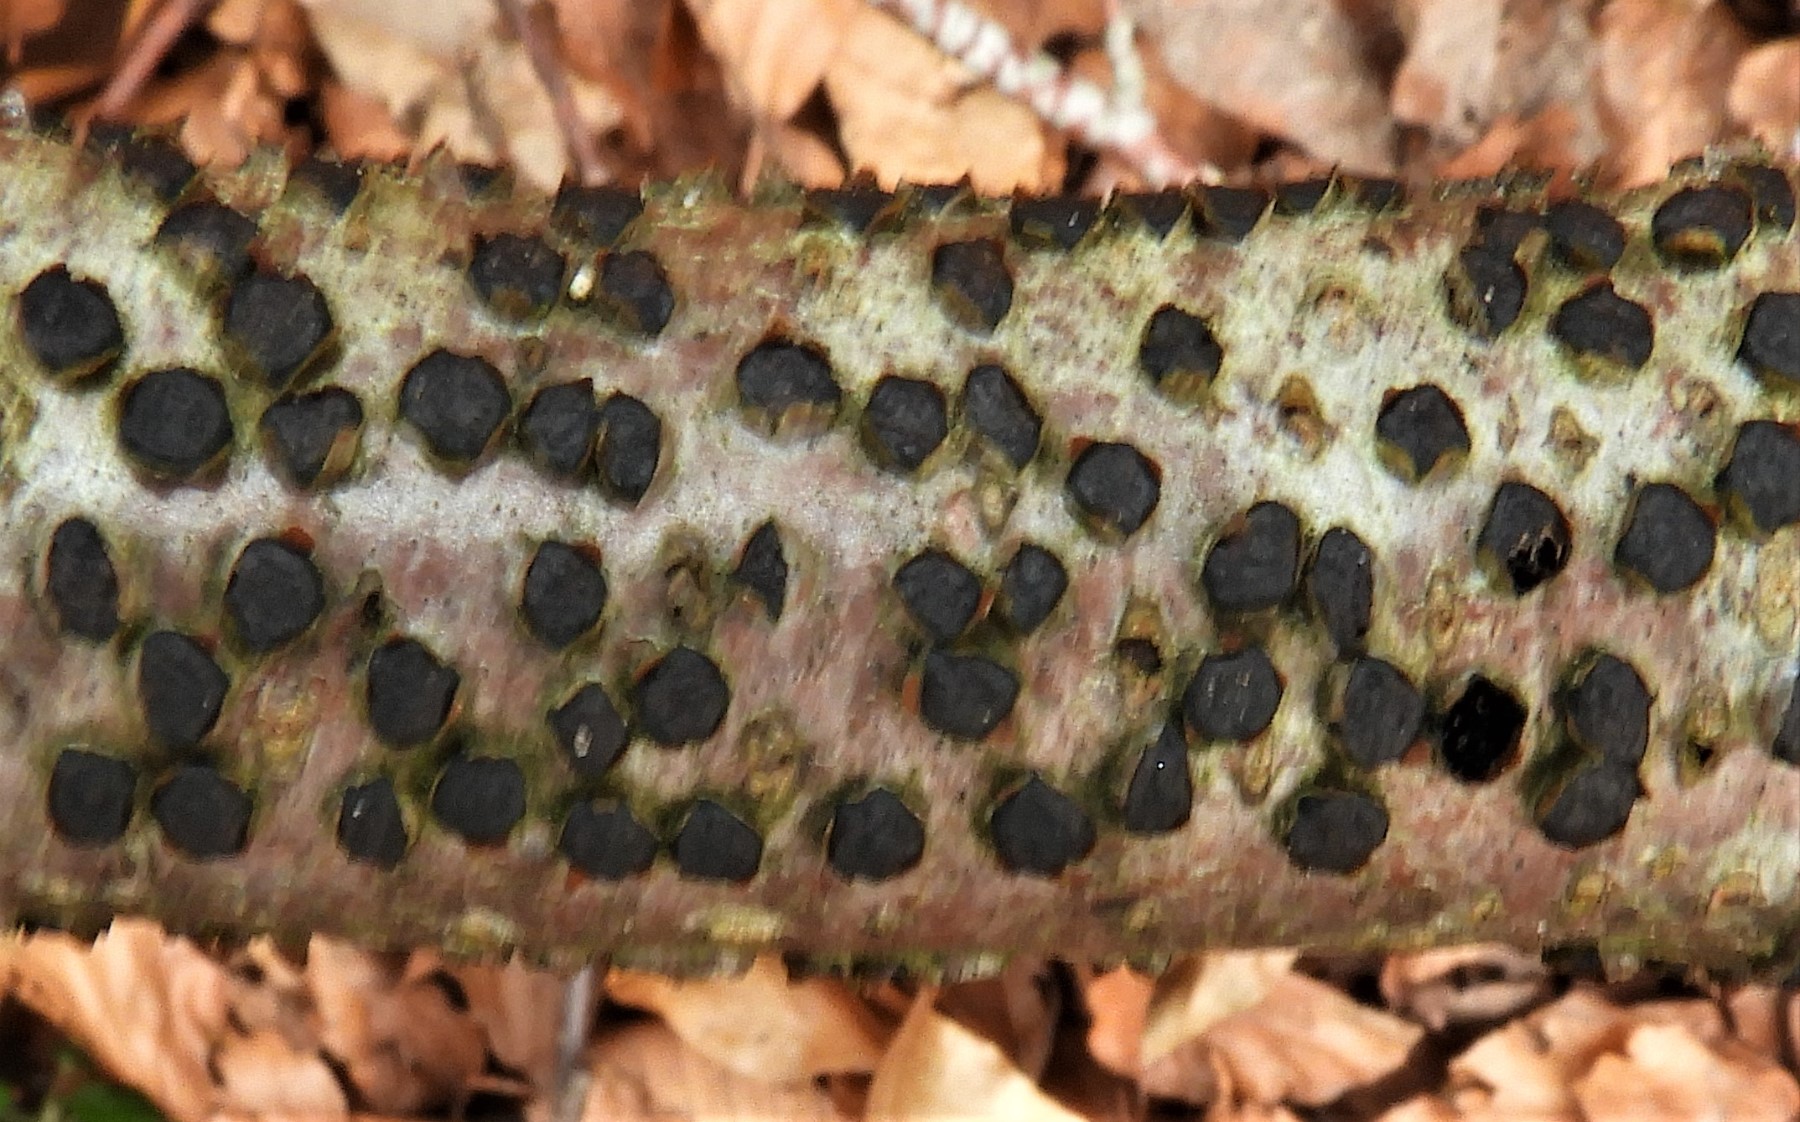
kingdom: Fungi
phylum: Ascomycota
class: Sordariomycetes
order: Xylariales
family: Diatrypaceae
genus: Diatrype
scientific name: Diatrype disciformis
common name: kant-kulskorpe
